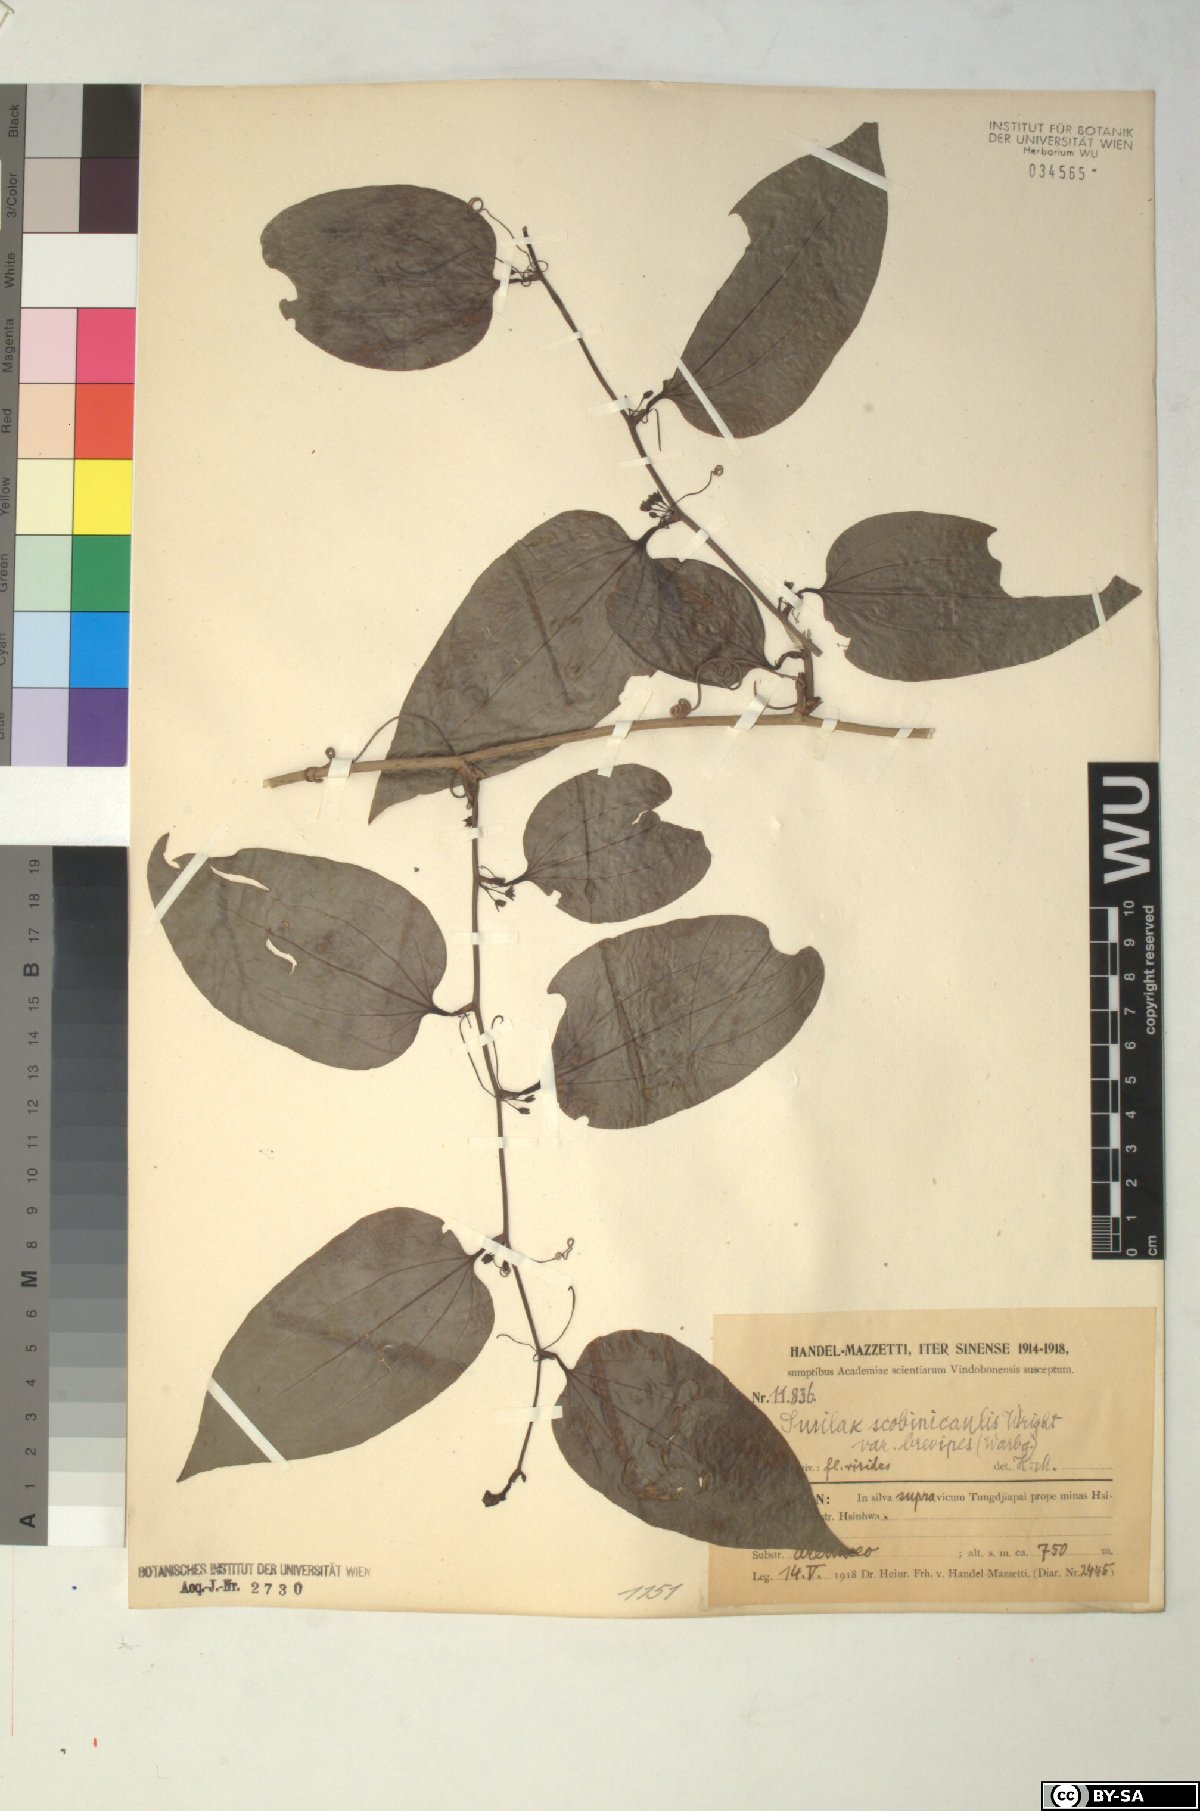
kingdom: Plantae
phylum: Tracheophyta
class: Liliopsida
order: Liliales
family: Smilacaceae
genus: Smilax
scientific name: Smilax scobinicaulis
